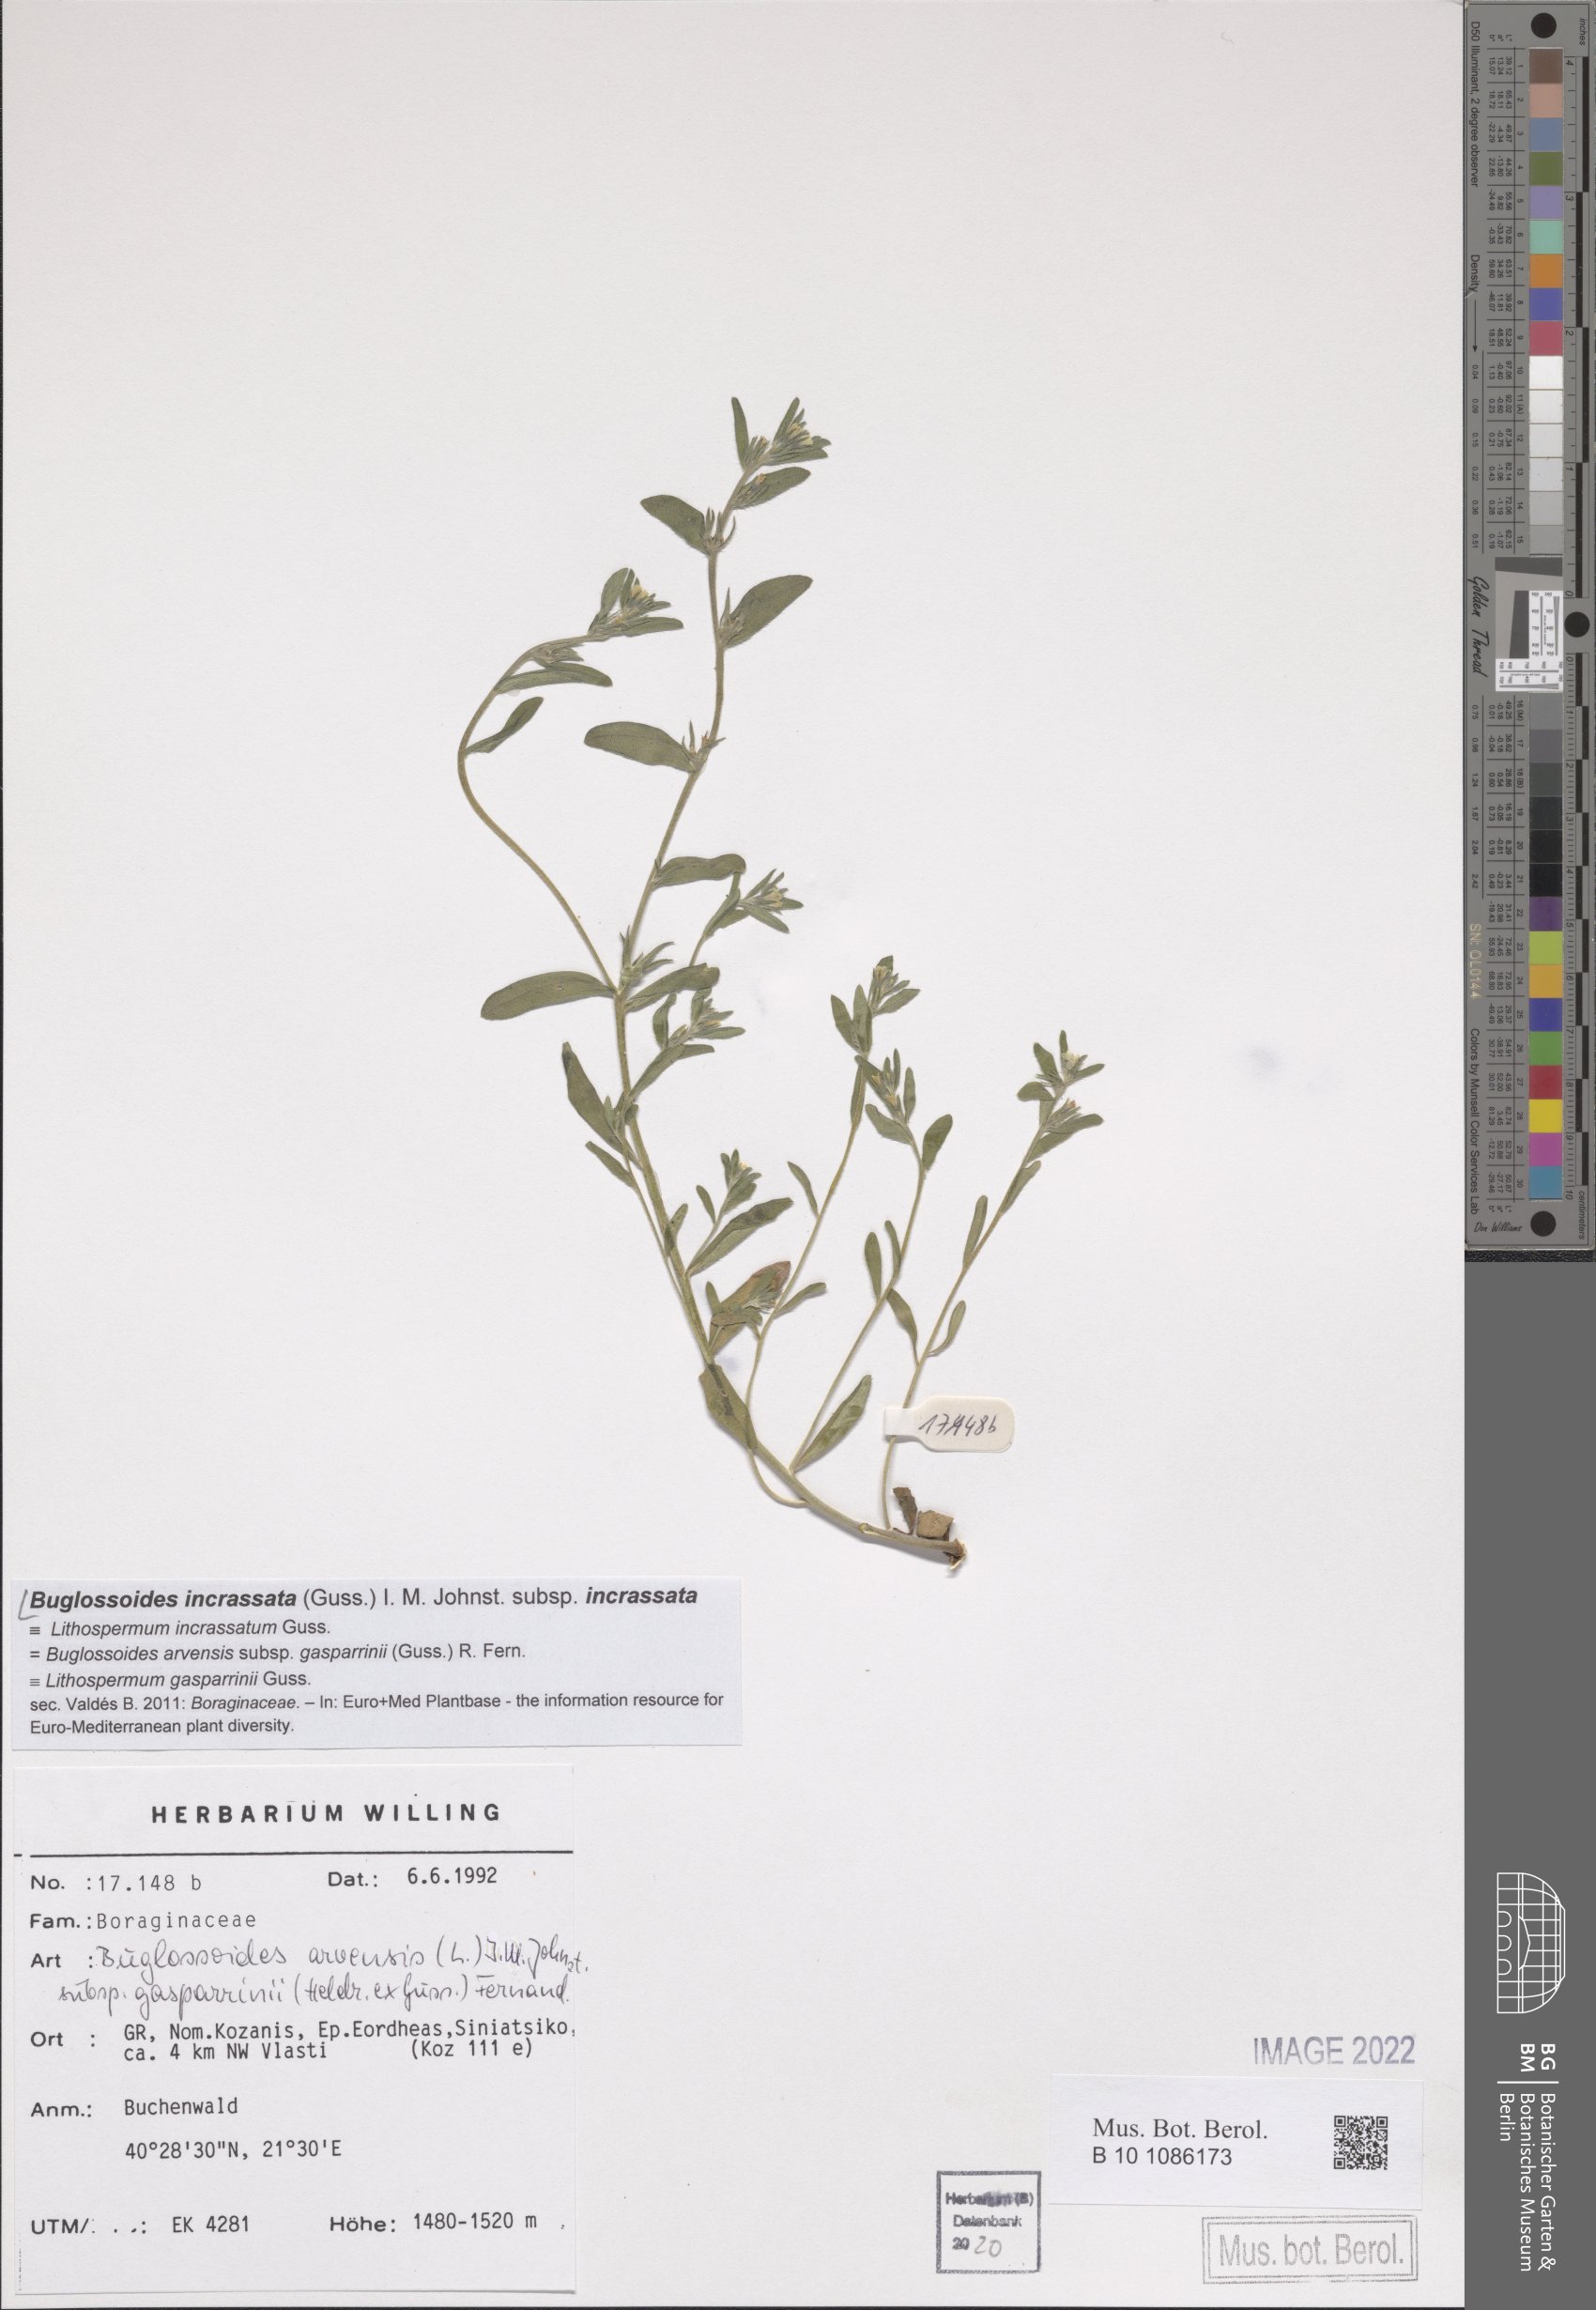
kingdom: Plantae
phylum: Tracheophyta
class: Magnoliopsida
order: Boraginales
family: Boraginaceae
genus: Buglossoides
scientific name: Buglossoides incrassata
